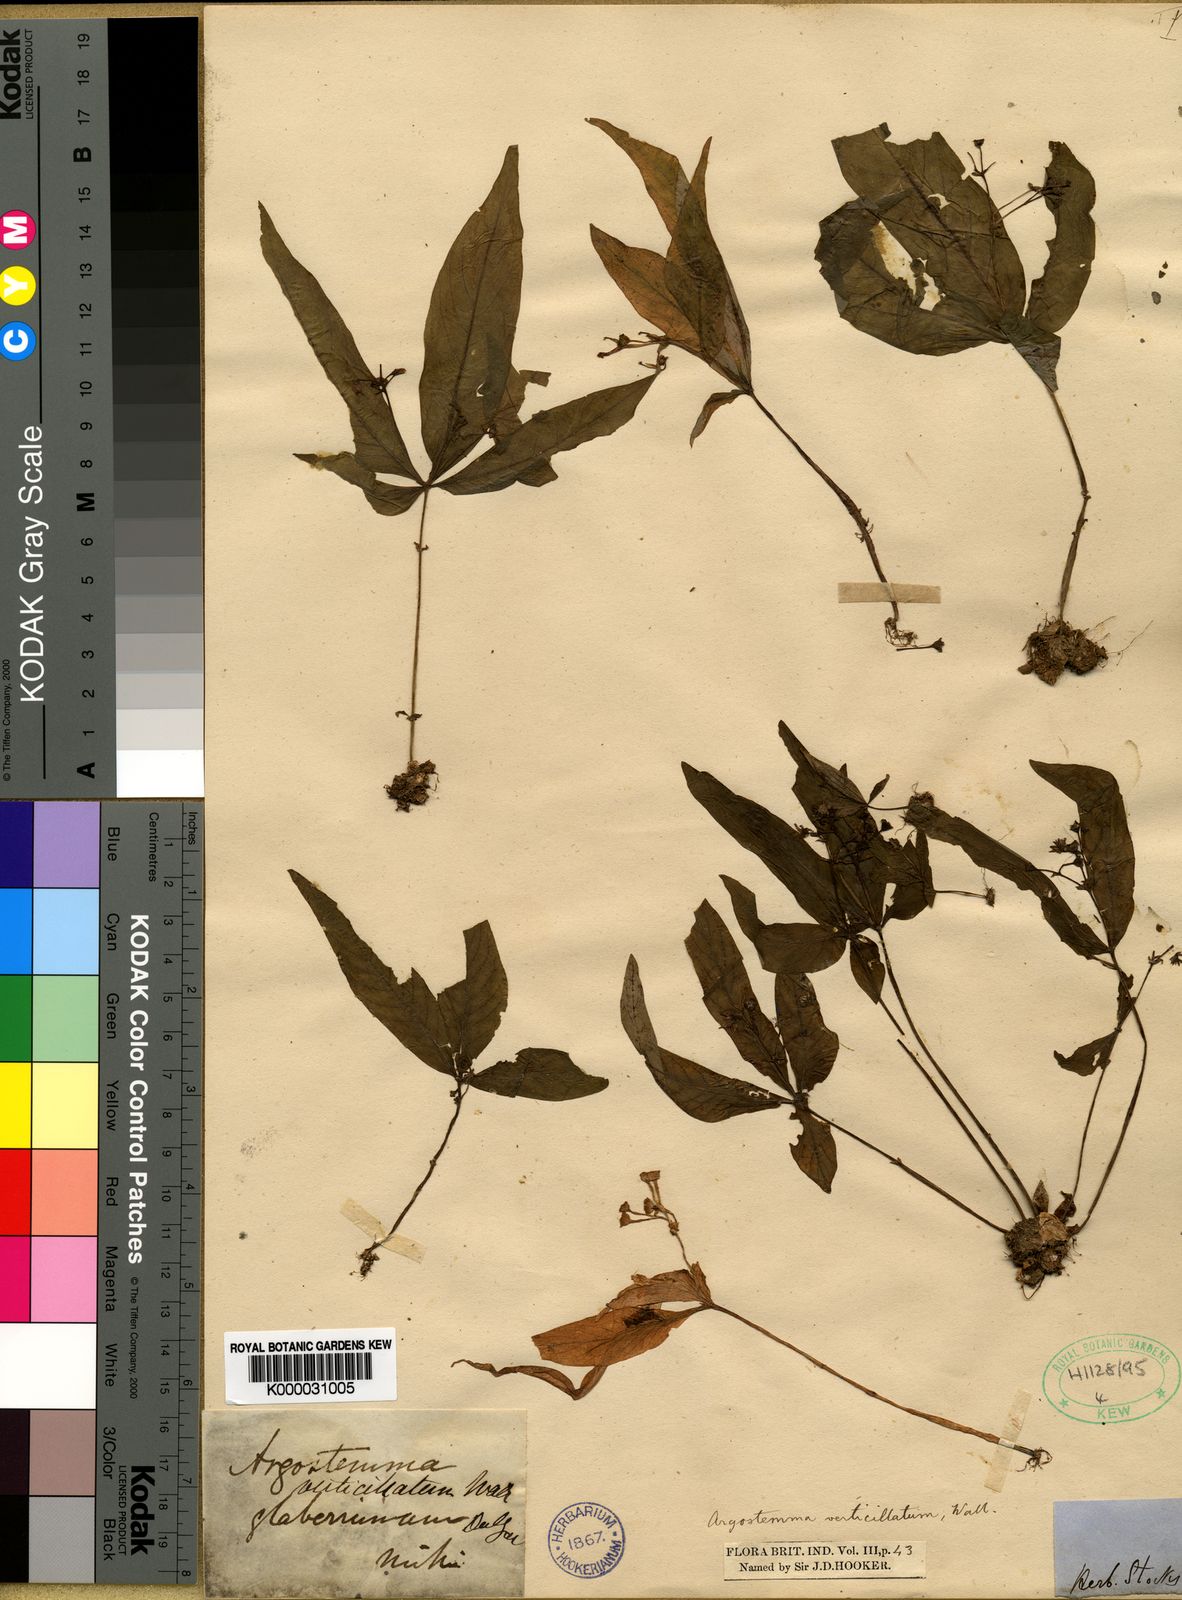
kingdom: Plantae
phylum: Tracheophyta
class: Magnoliopsida
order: Gentianales
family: Rubiaceae
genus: Argostemma
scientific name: Argostemma verticillatum
